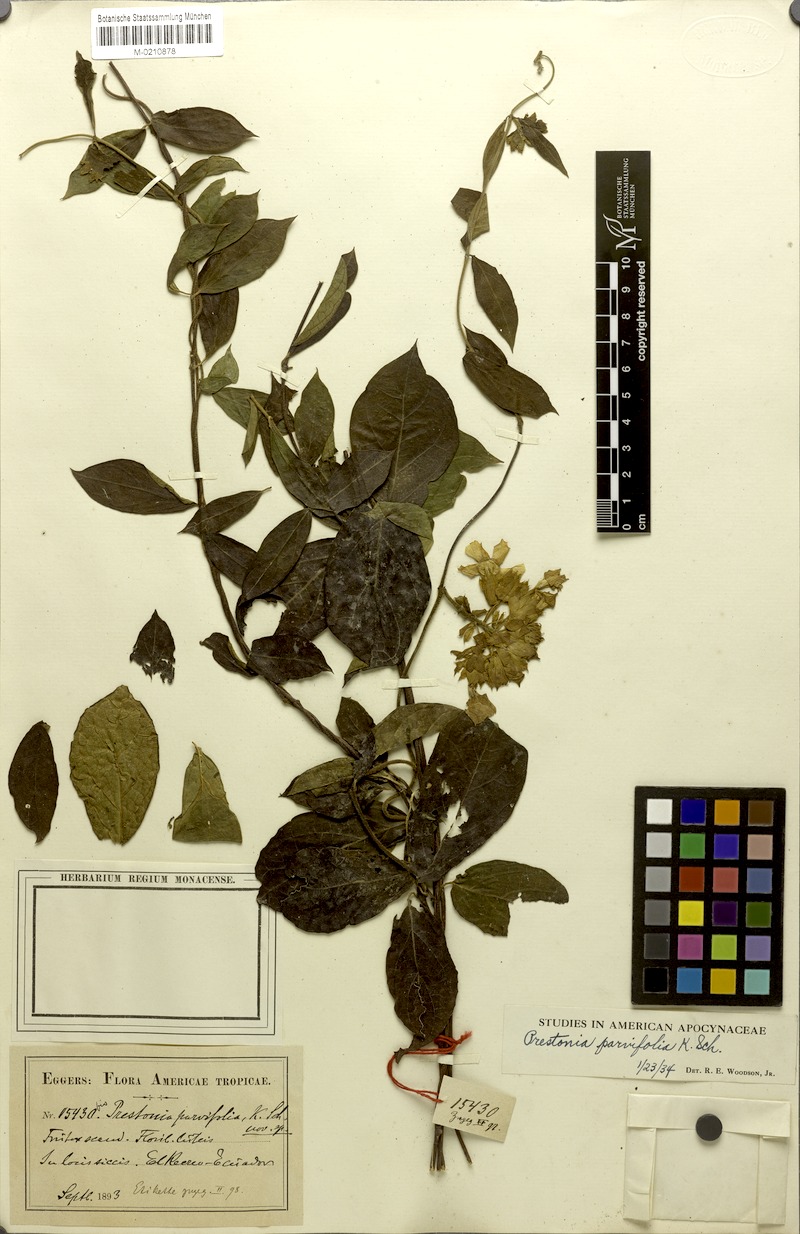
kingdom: Plantae
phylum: Tracheophyta
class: Magnoliopsida
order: Gentianales
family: Apocynaceae
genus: Prestonia
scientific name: Prestonia parvifolia
